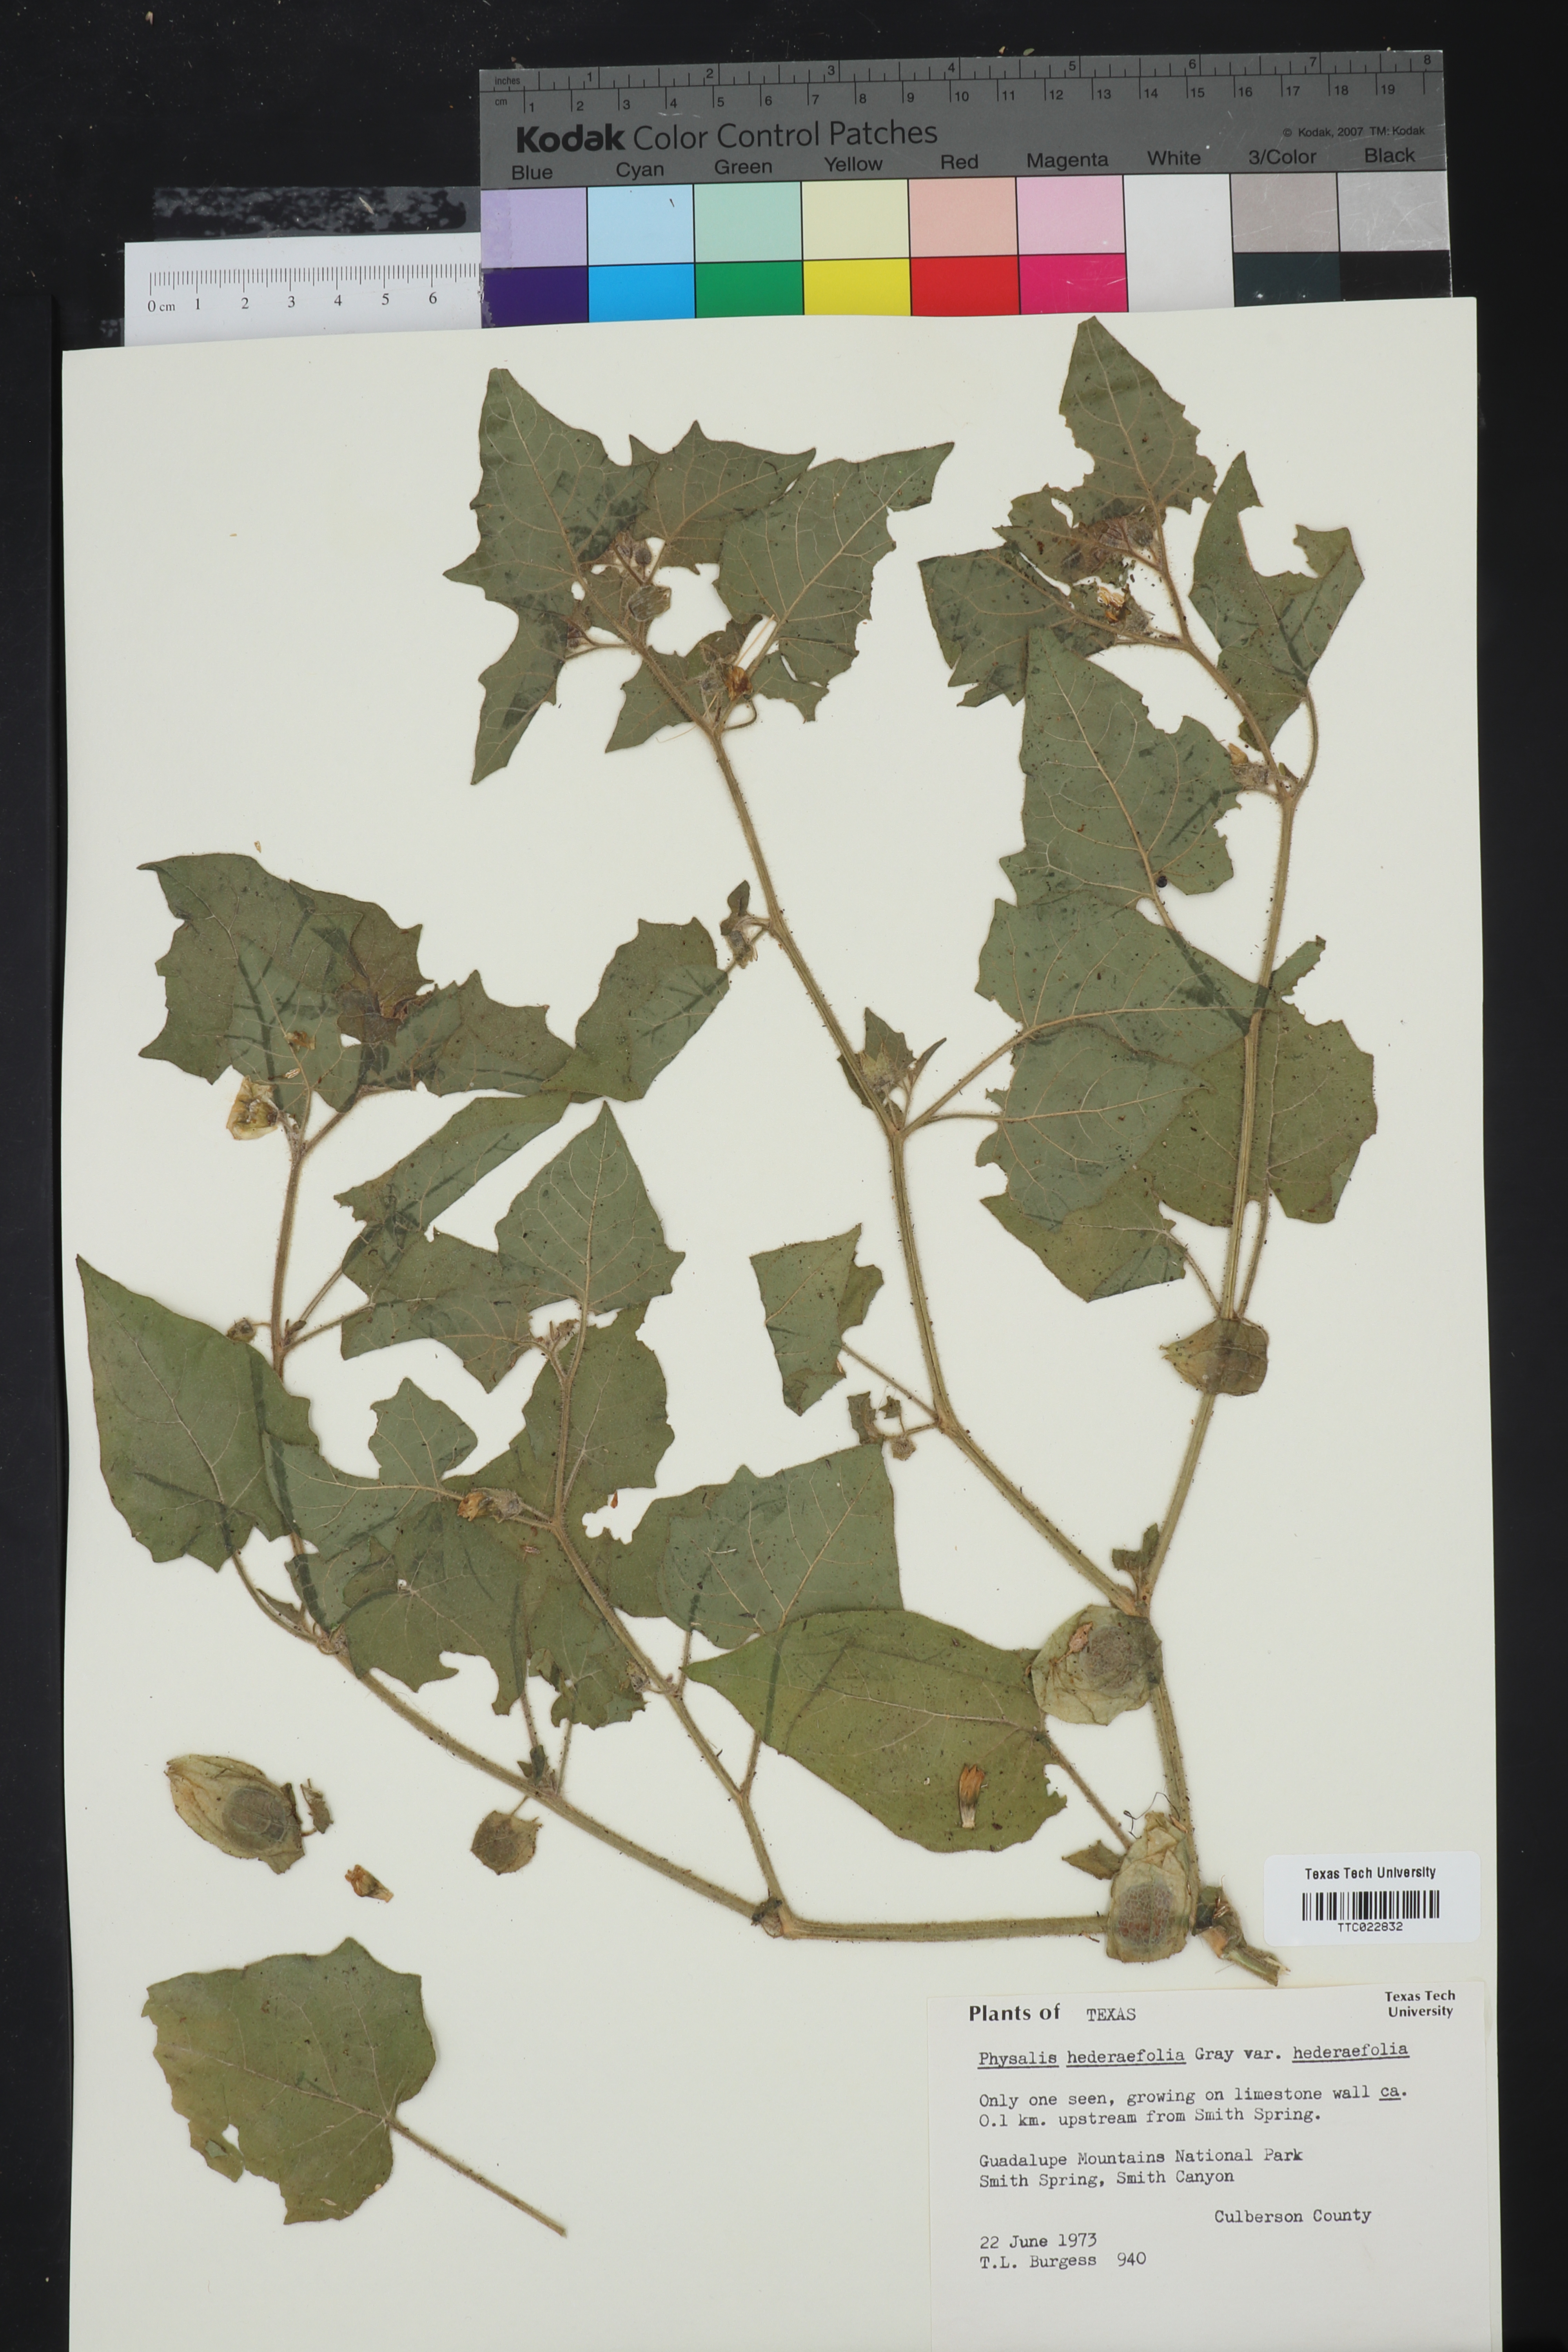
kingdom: Plantae
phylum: Tracheophyta
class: Magnoliopsida
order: Solanales
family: Solanaceae
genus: Physalis
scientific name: Physalis hederifolia
